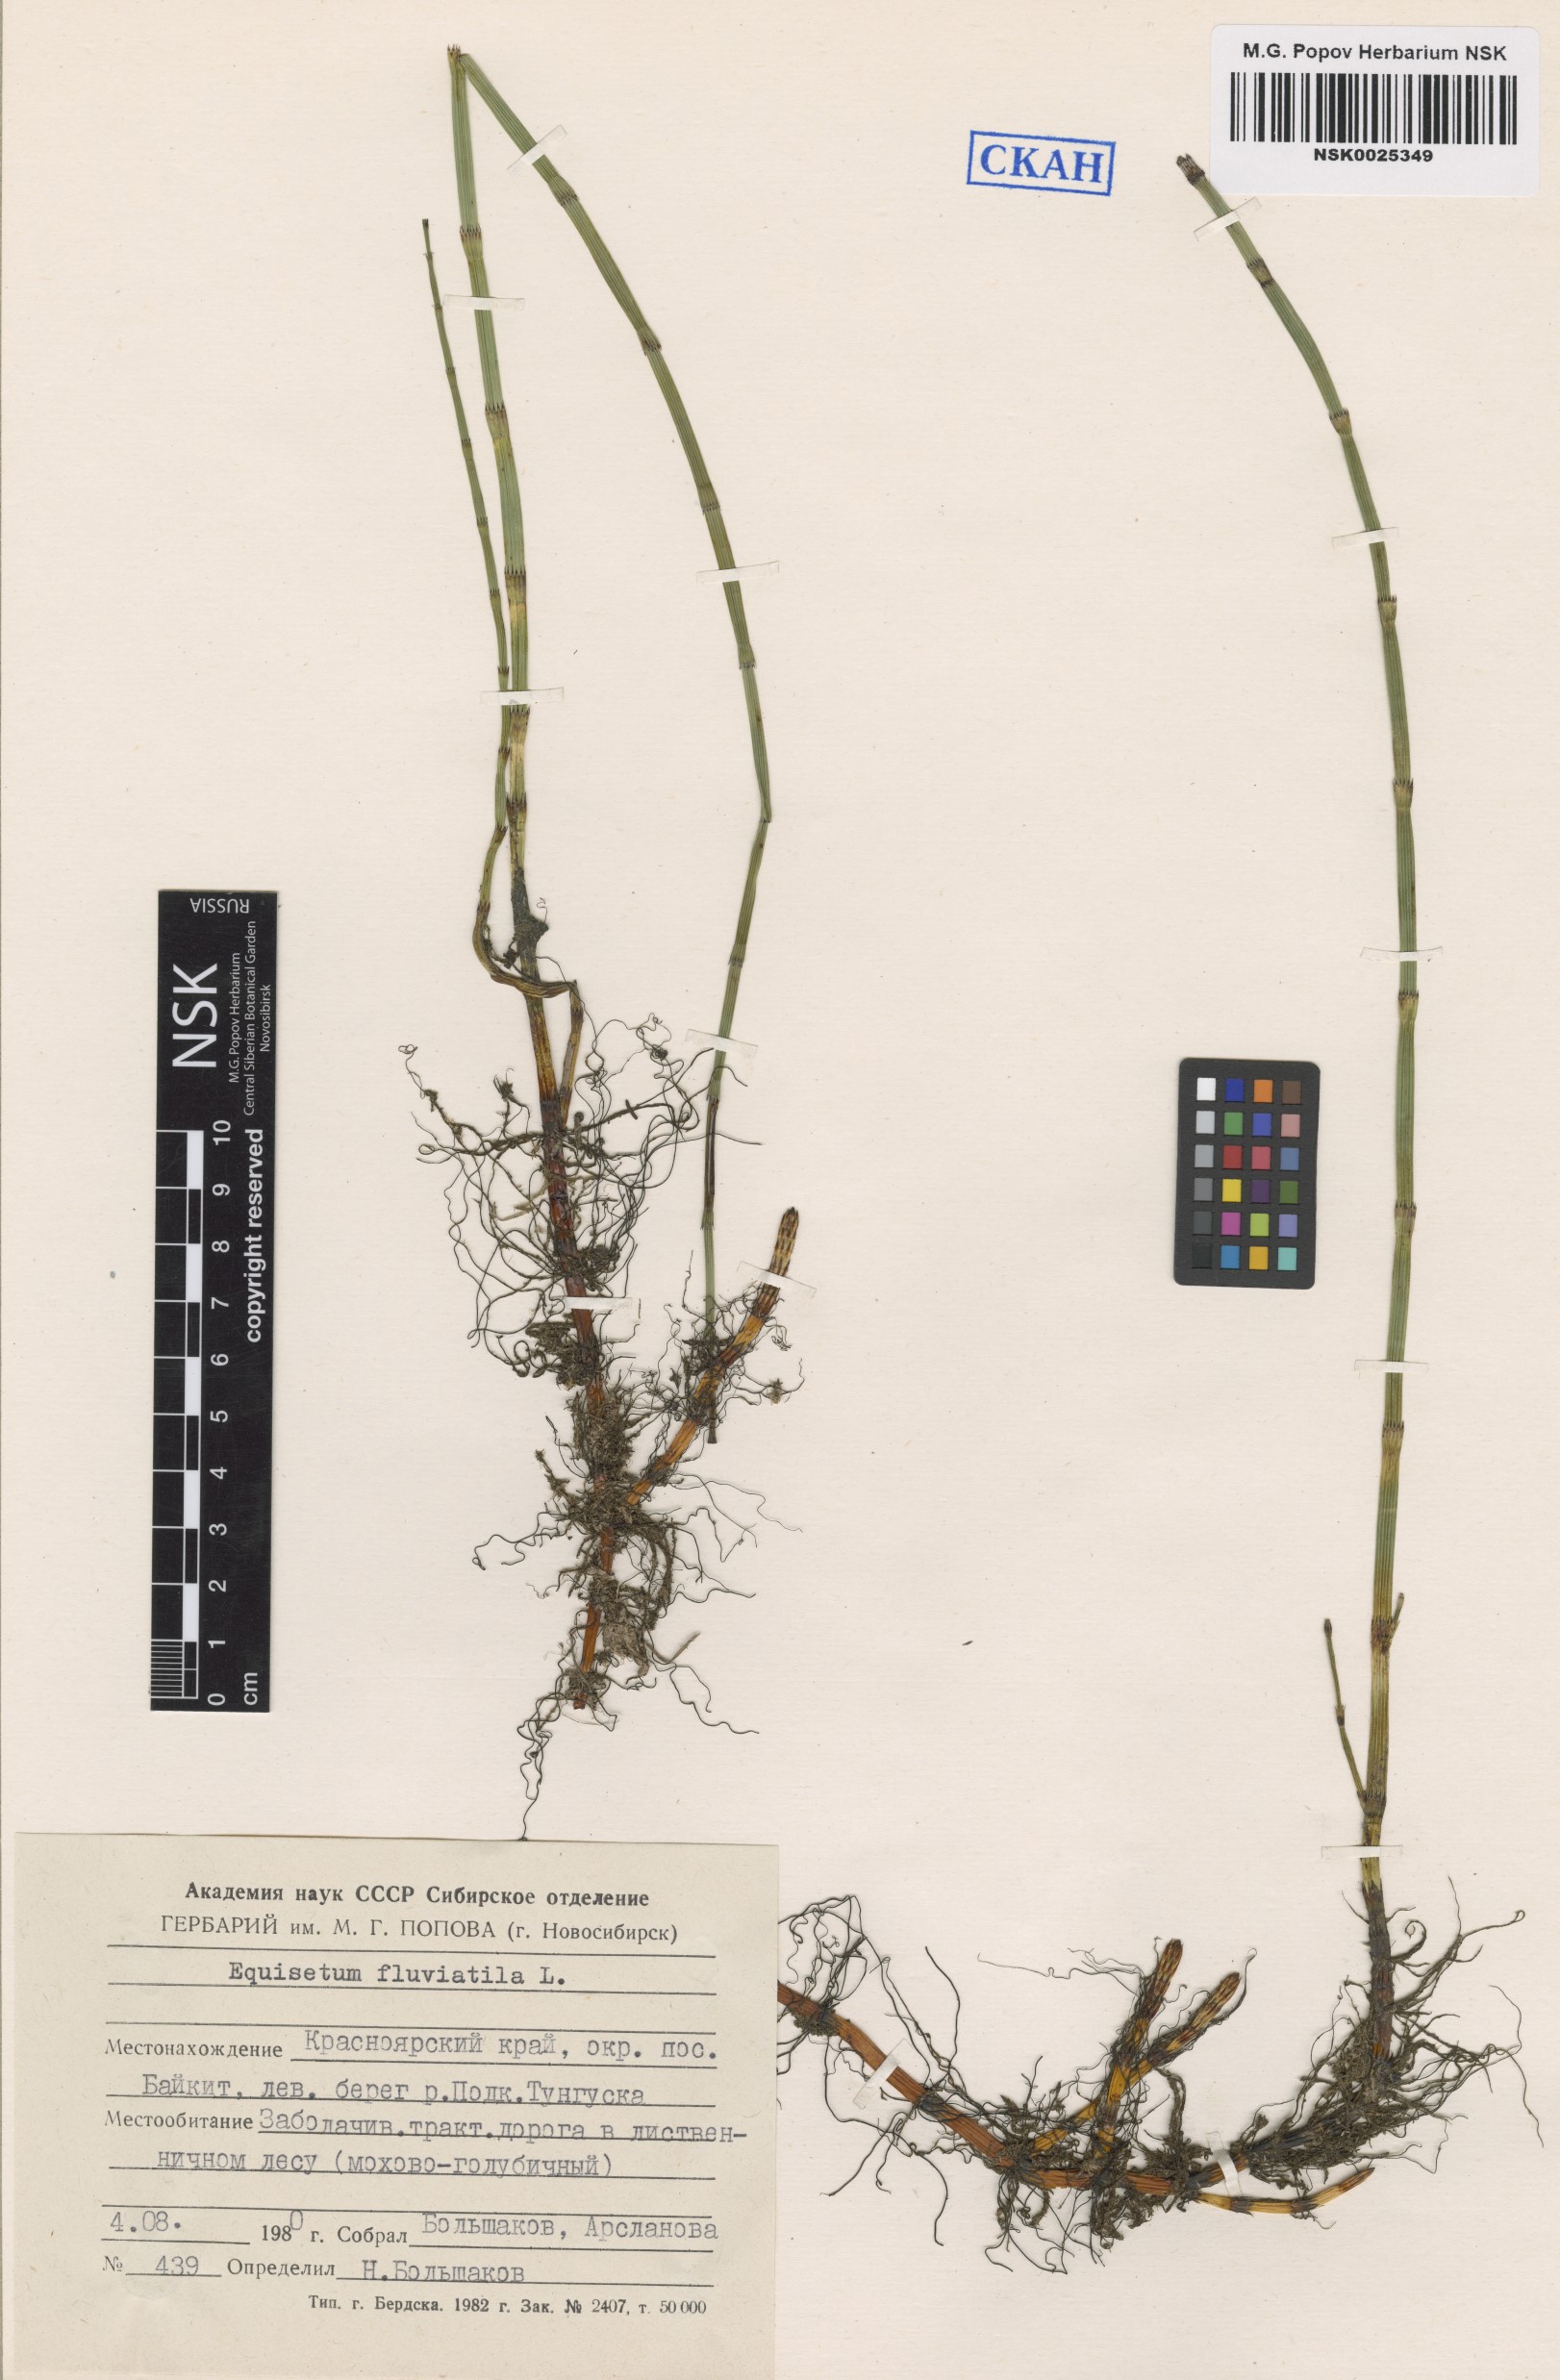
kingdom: Plantae
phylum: Tracheophyta
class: Polypodiopsida
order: Equisetales
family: Equisetaceae
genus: Equisetum
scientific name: Equisetum fluviatile
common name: Water horsetail
